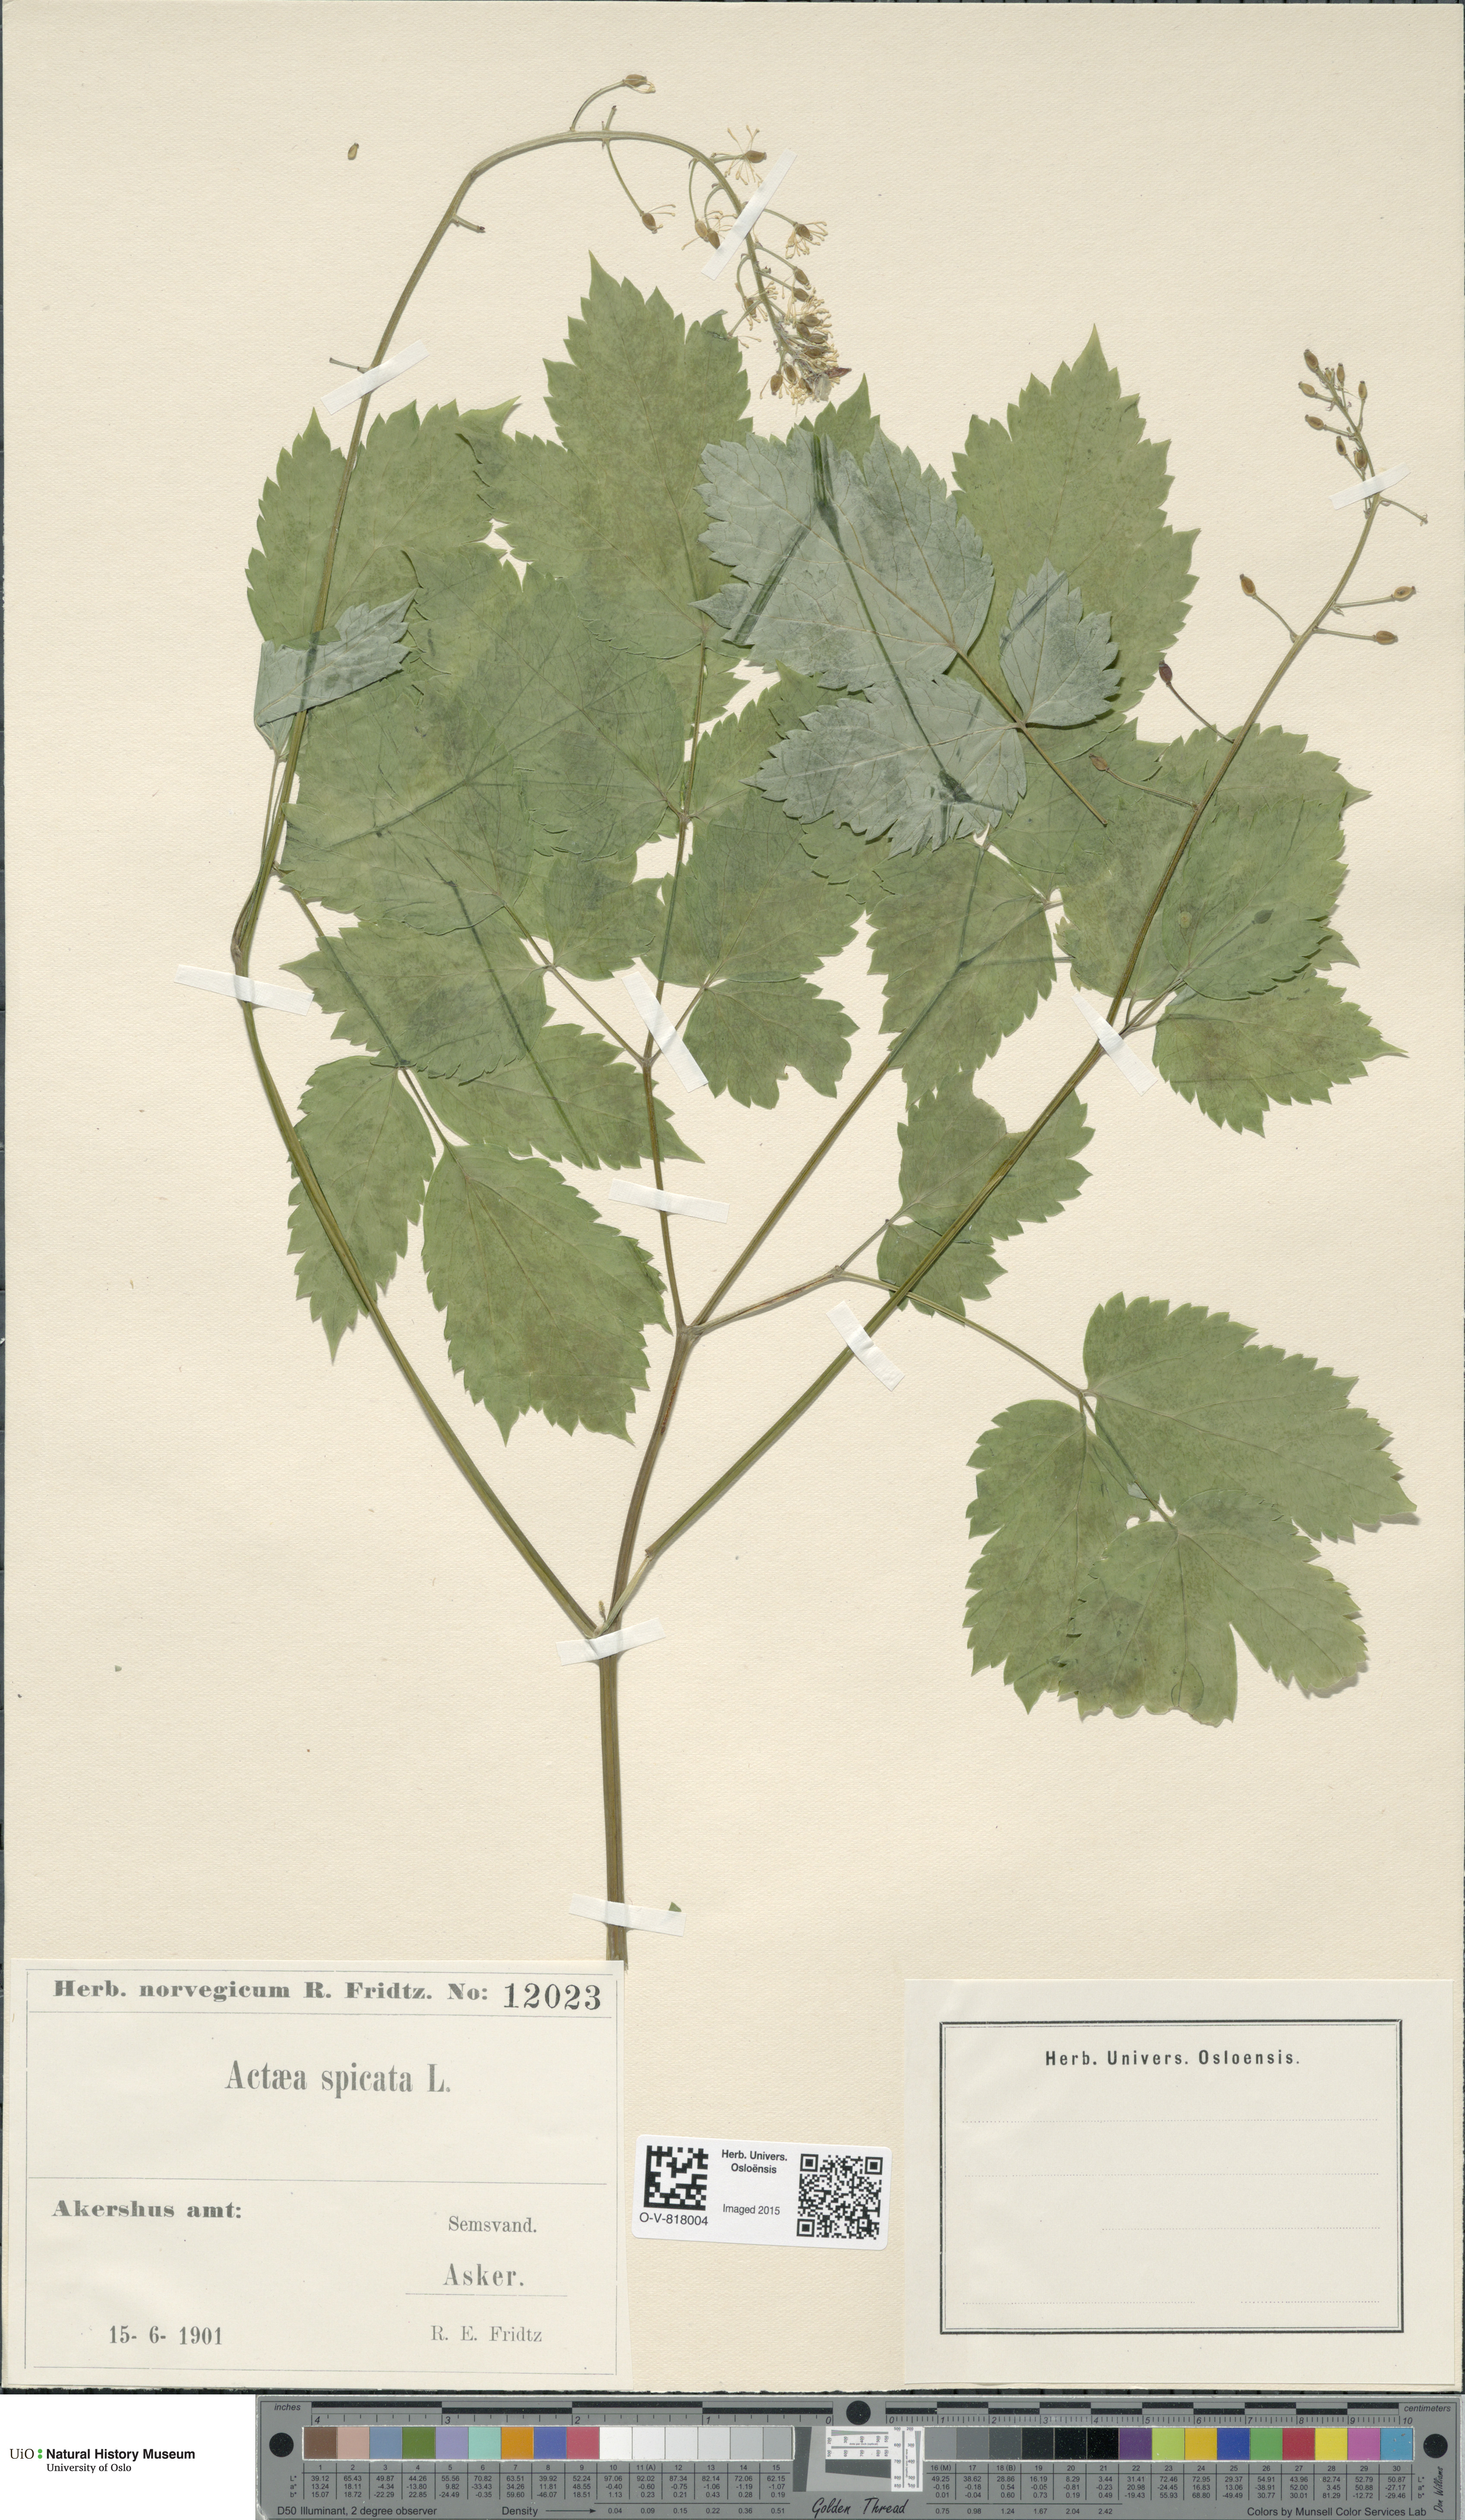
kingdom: Plantae
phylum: Tracheophyta
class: Magnoliopsida
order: Ranunculales
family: Ranunculaceae
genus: Actaea
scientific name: Actaea spicata
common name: Baneberry
